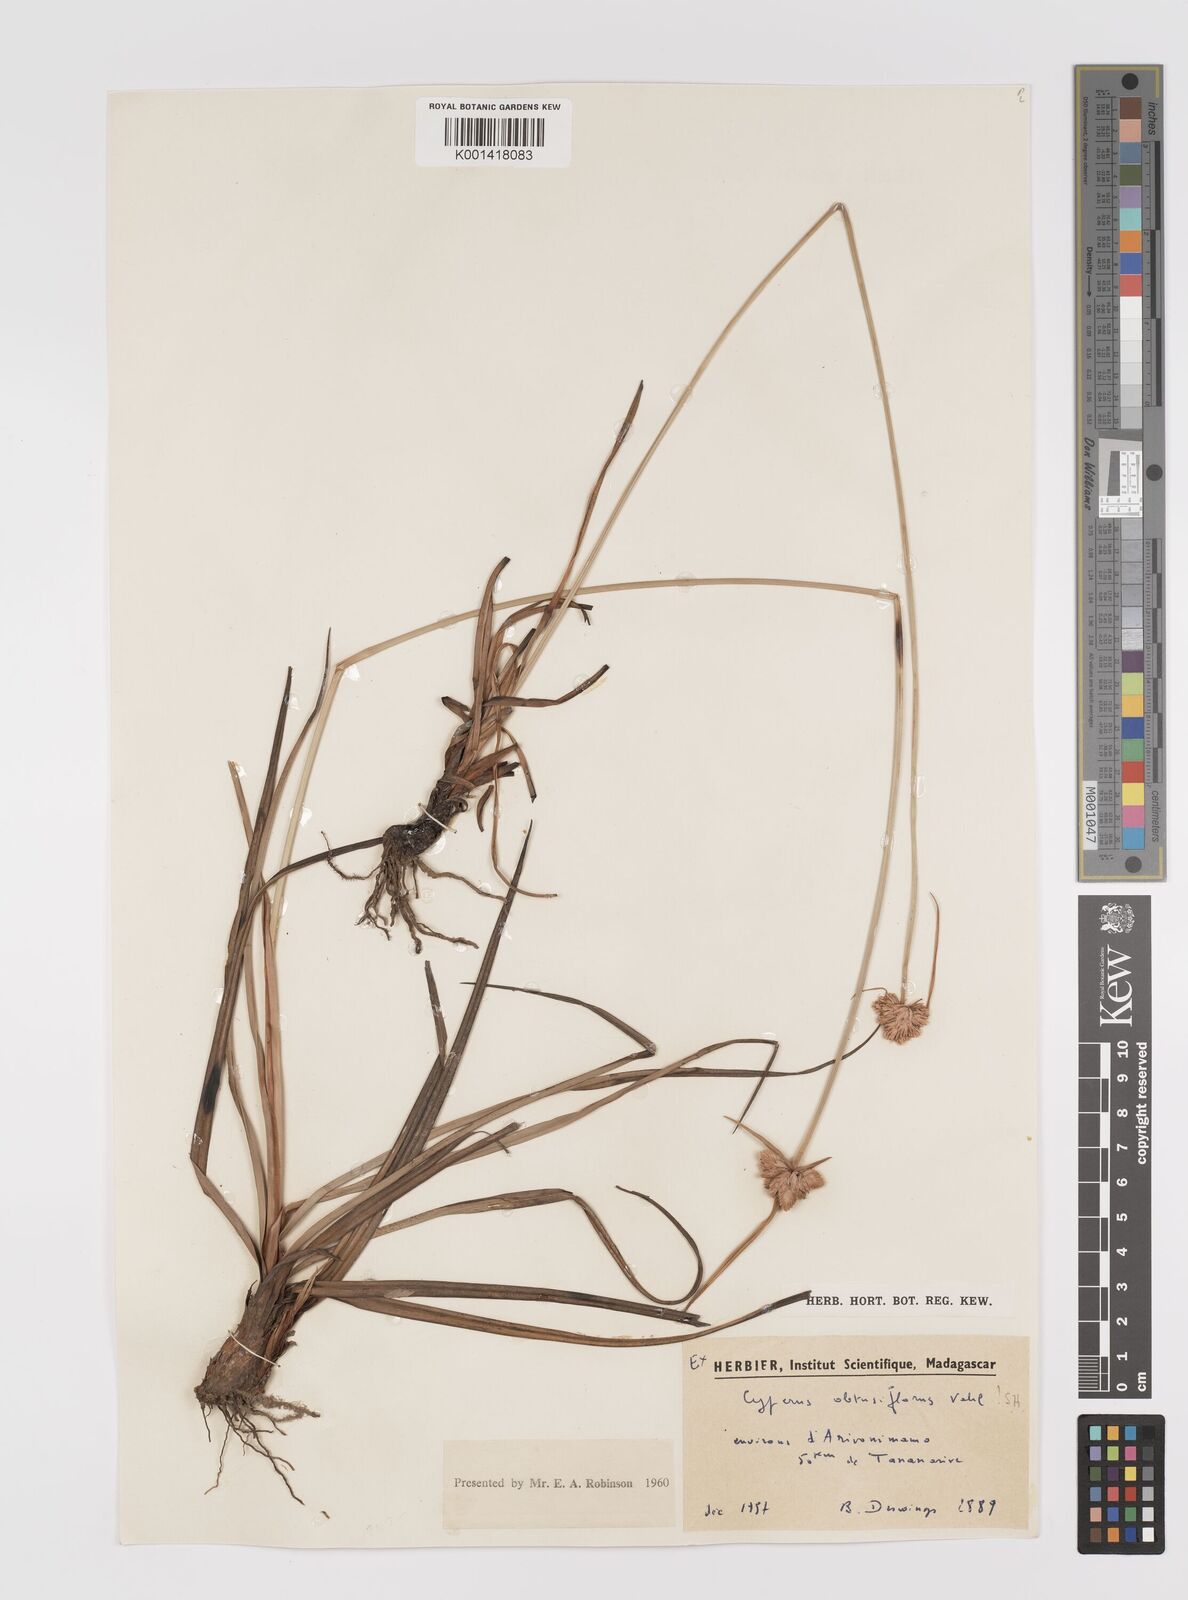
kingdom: Plantae
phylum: Tracheophyta
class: Liliopsida
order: Poales
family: Cyperaceae
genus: Cyperus
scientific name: Cyperus niveus
